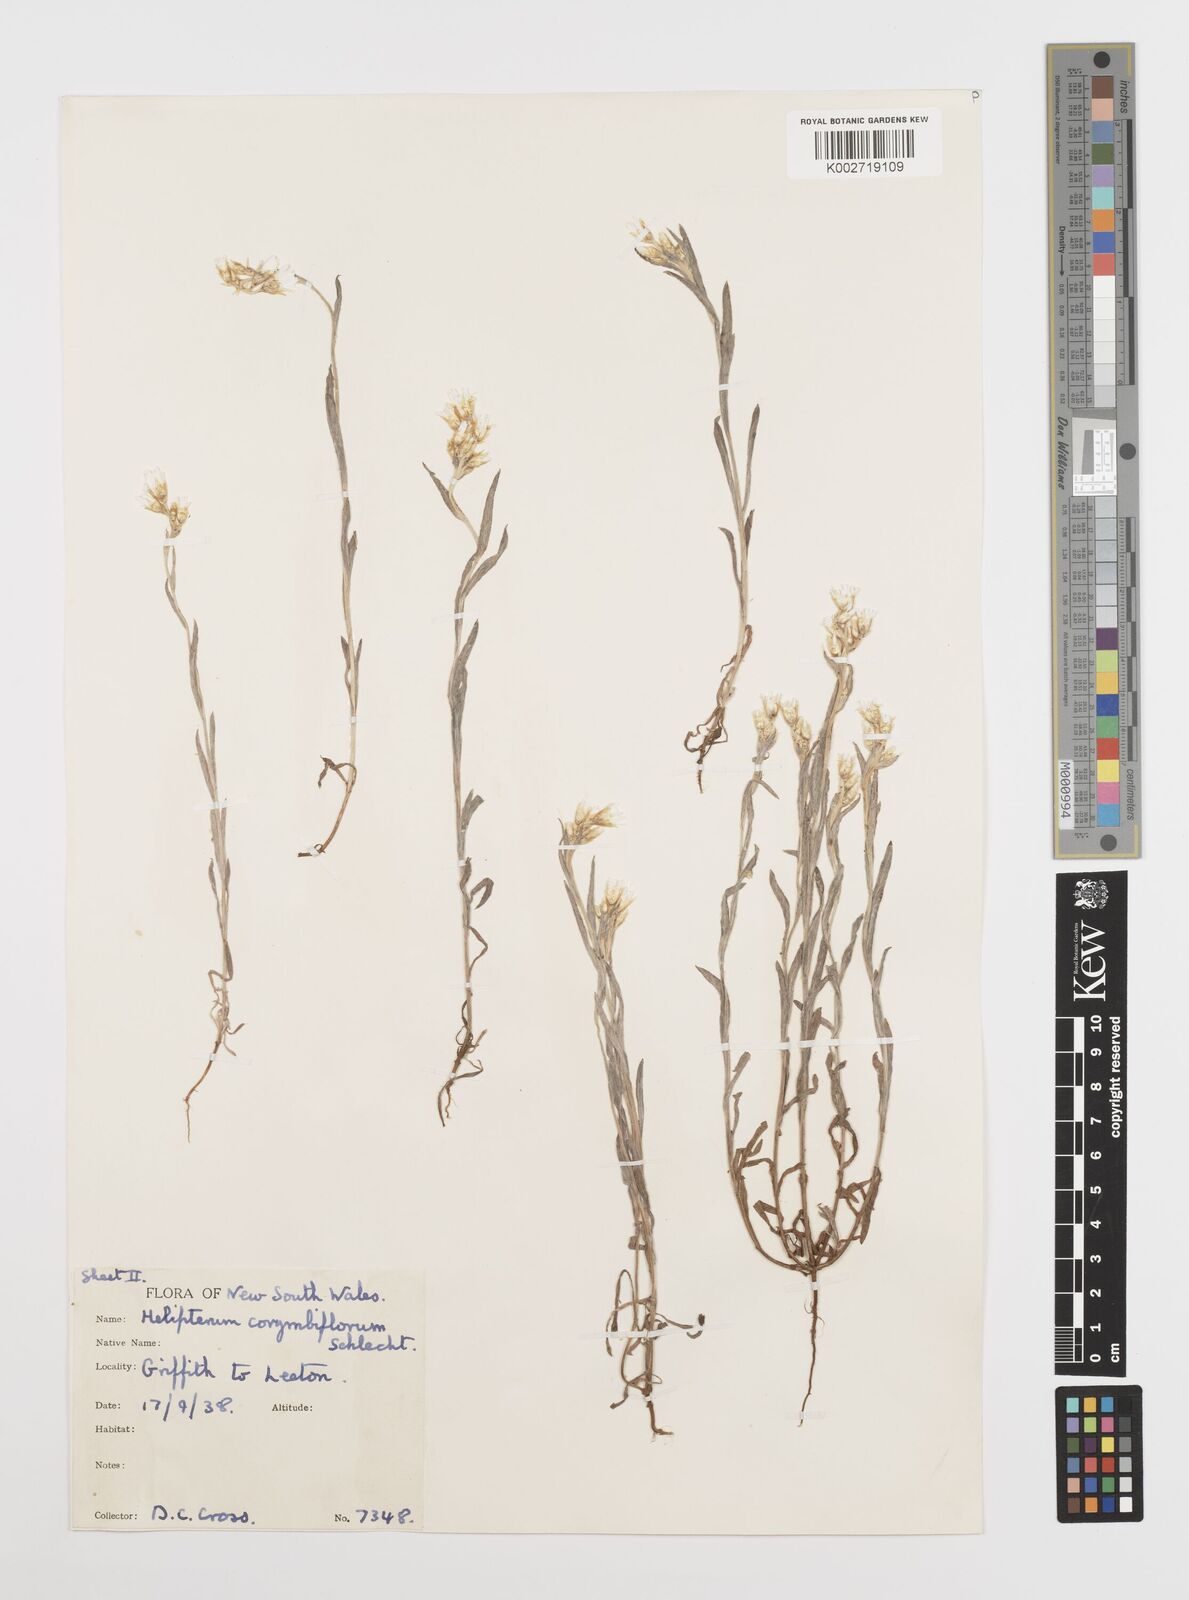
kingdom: Plantae
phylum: Tracheophyta
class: Magnoliopsida
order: Asterales
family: Asteraceae
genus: Rhodanthe
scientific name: Rhodanthe corymbiflora
